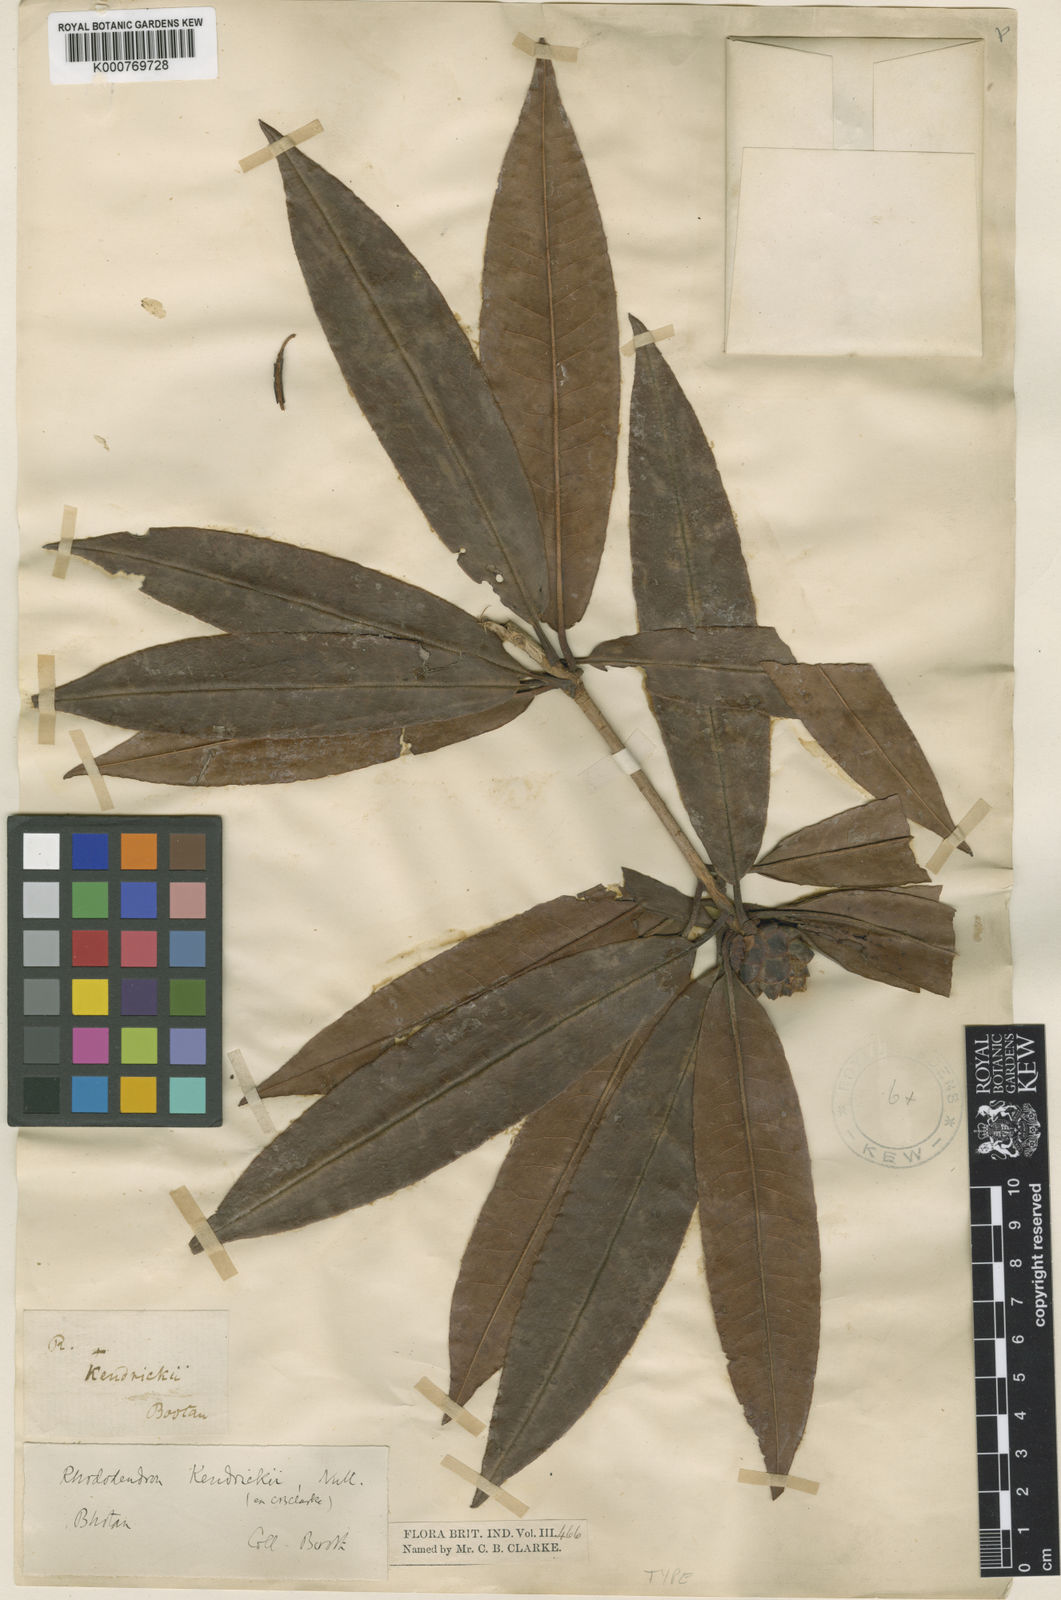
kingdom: Plantae
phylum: Tracheophyta
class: Magnoliopsida
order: Ericales
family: Ericaceae
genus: Rhododendron
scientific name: Rhododendron kendrickii
